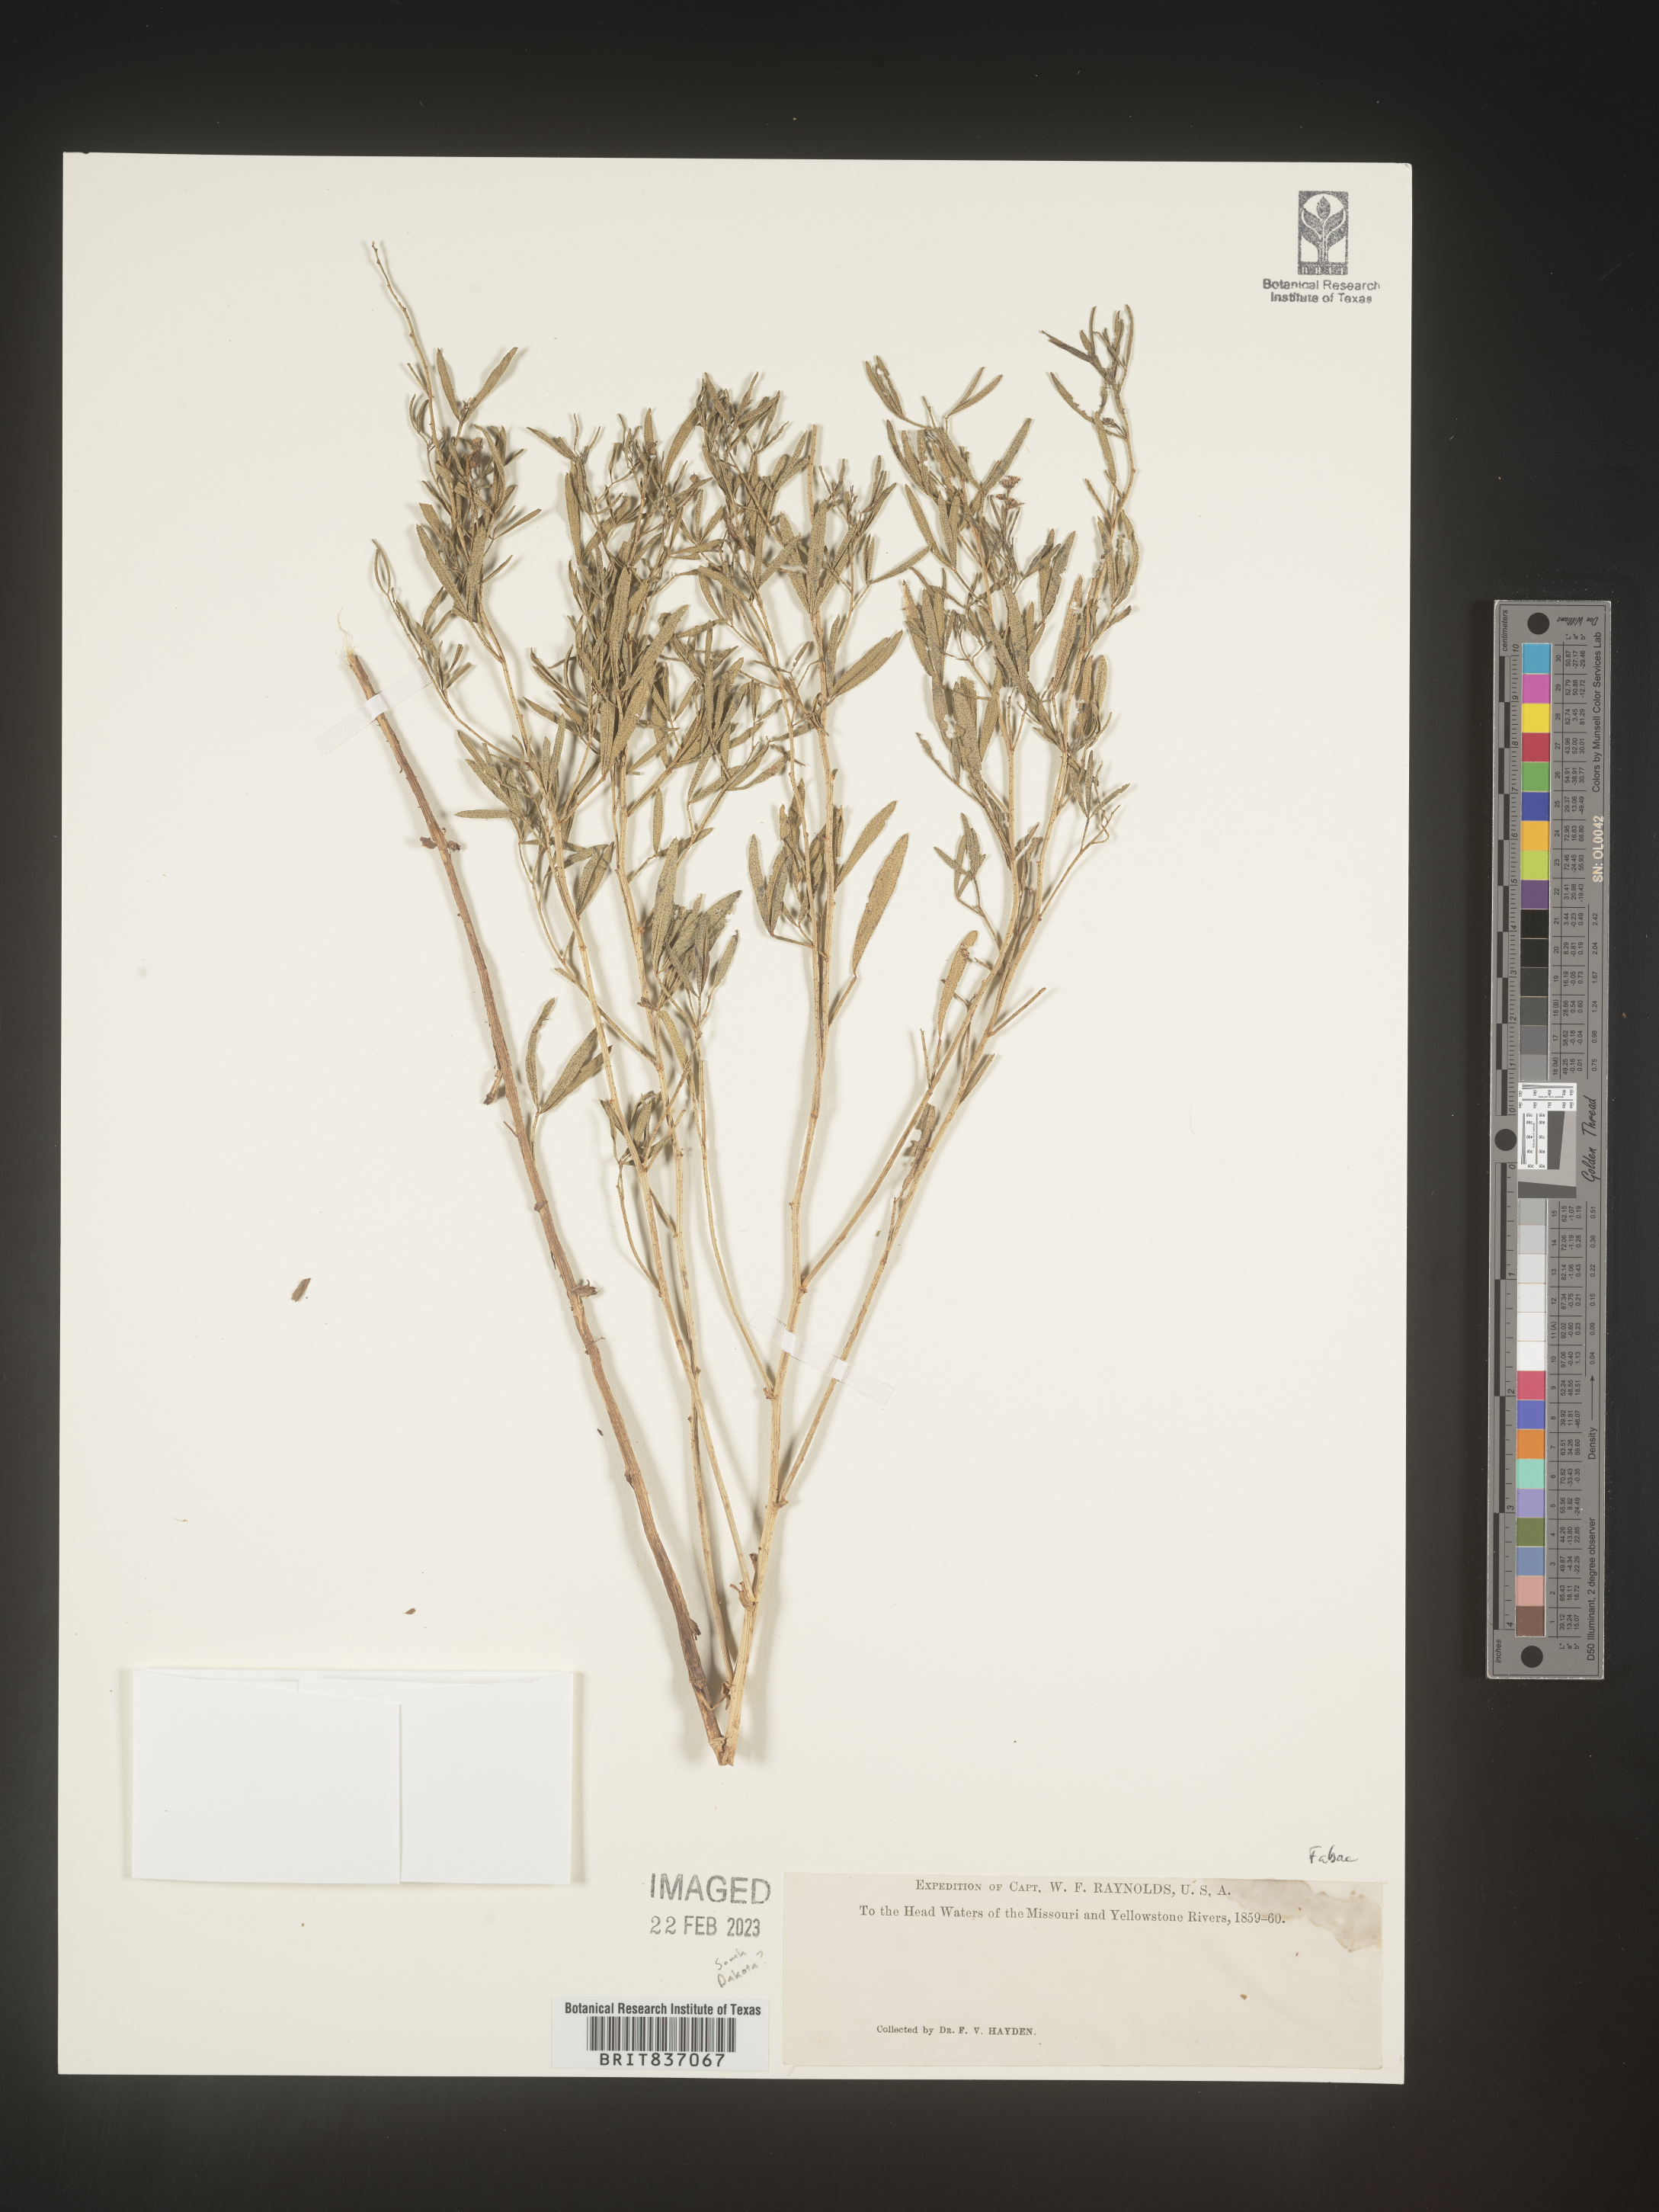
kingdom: Plantae
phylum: Tracheophyta
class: Magnoliopsida
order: Fabales
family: Fabaceae
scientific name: Fabaceae
